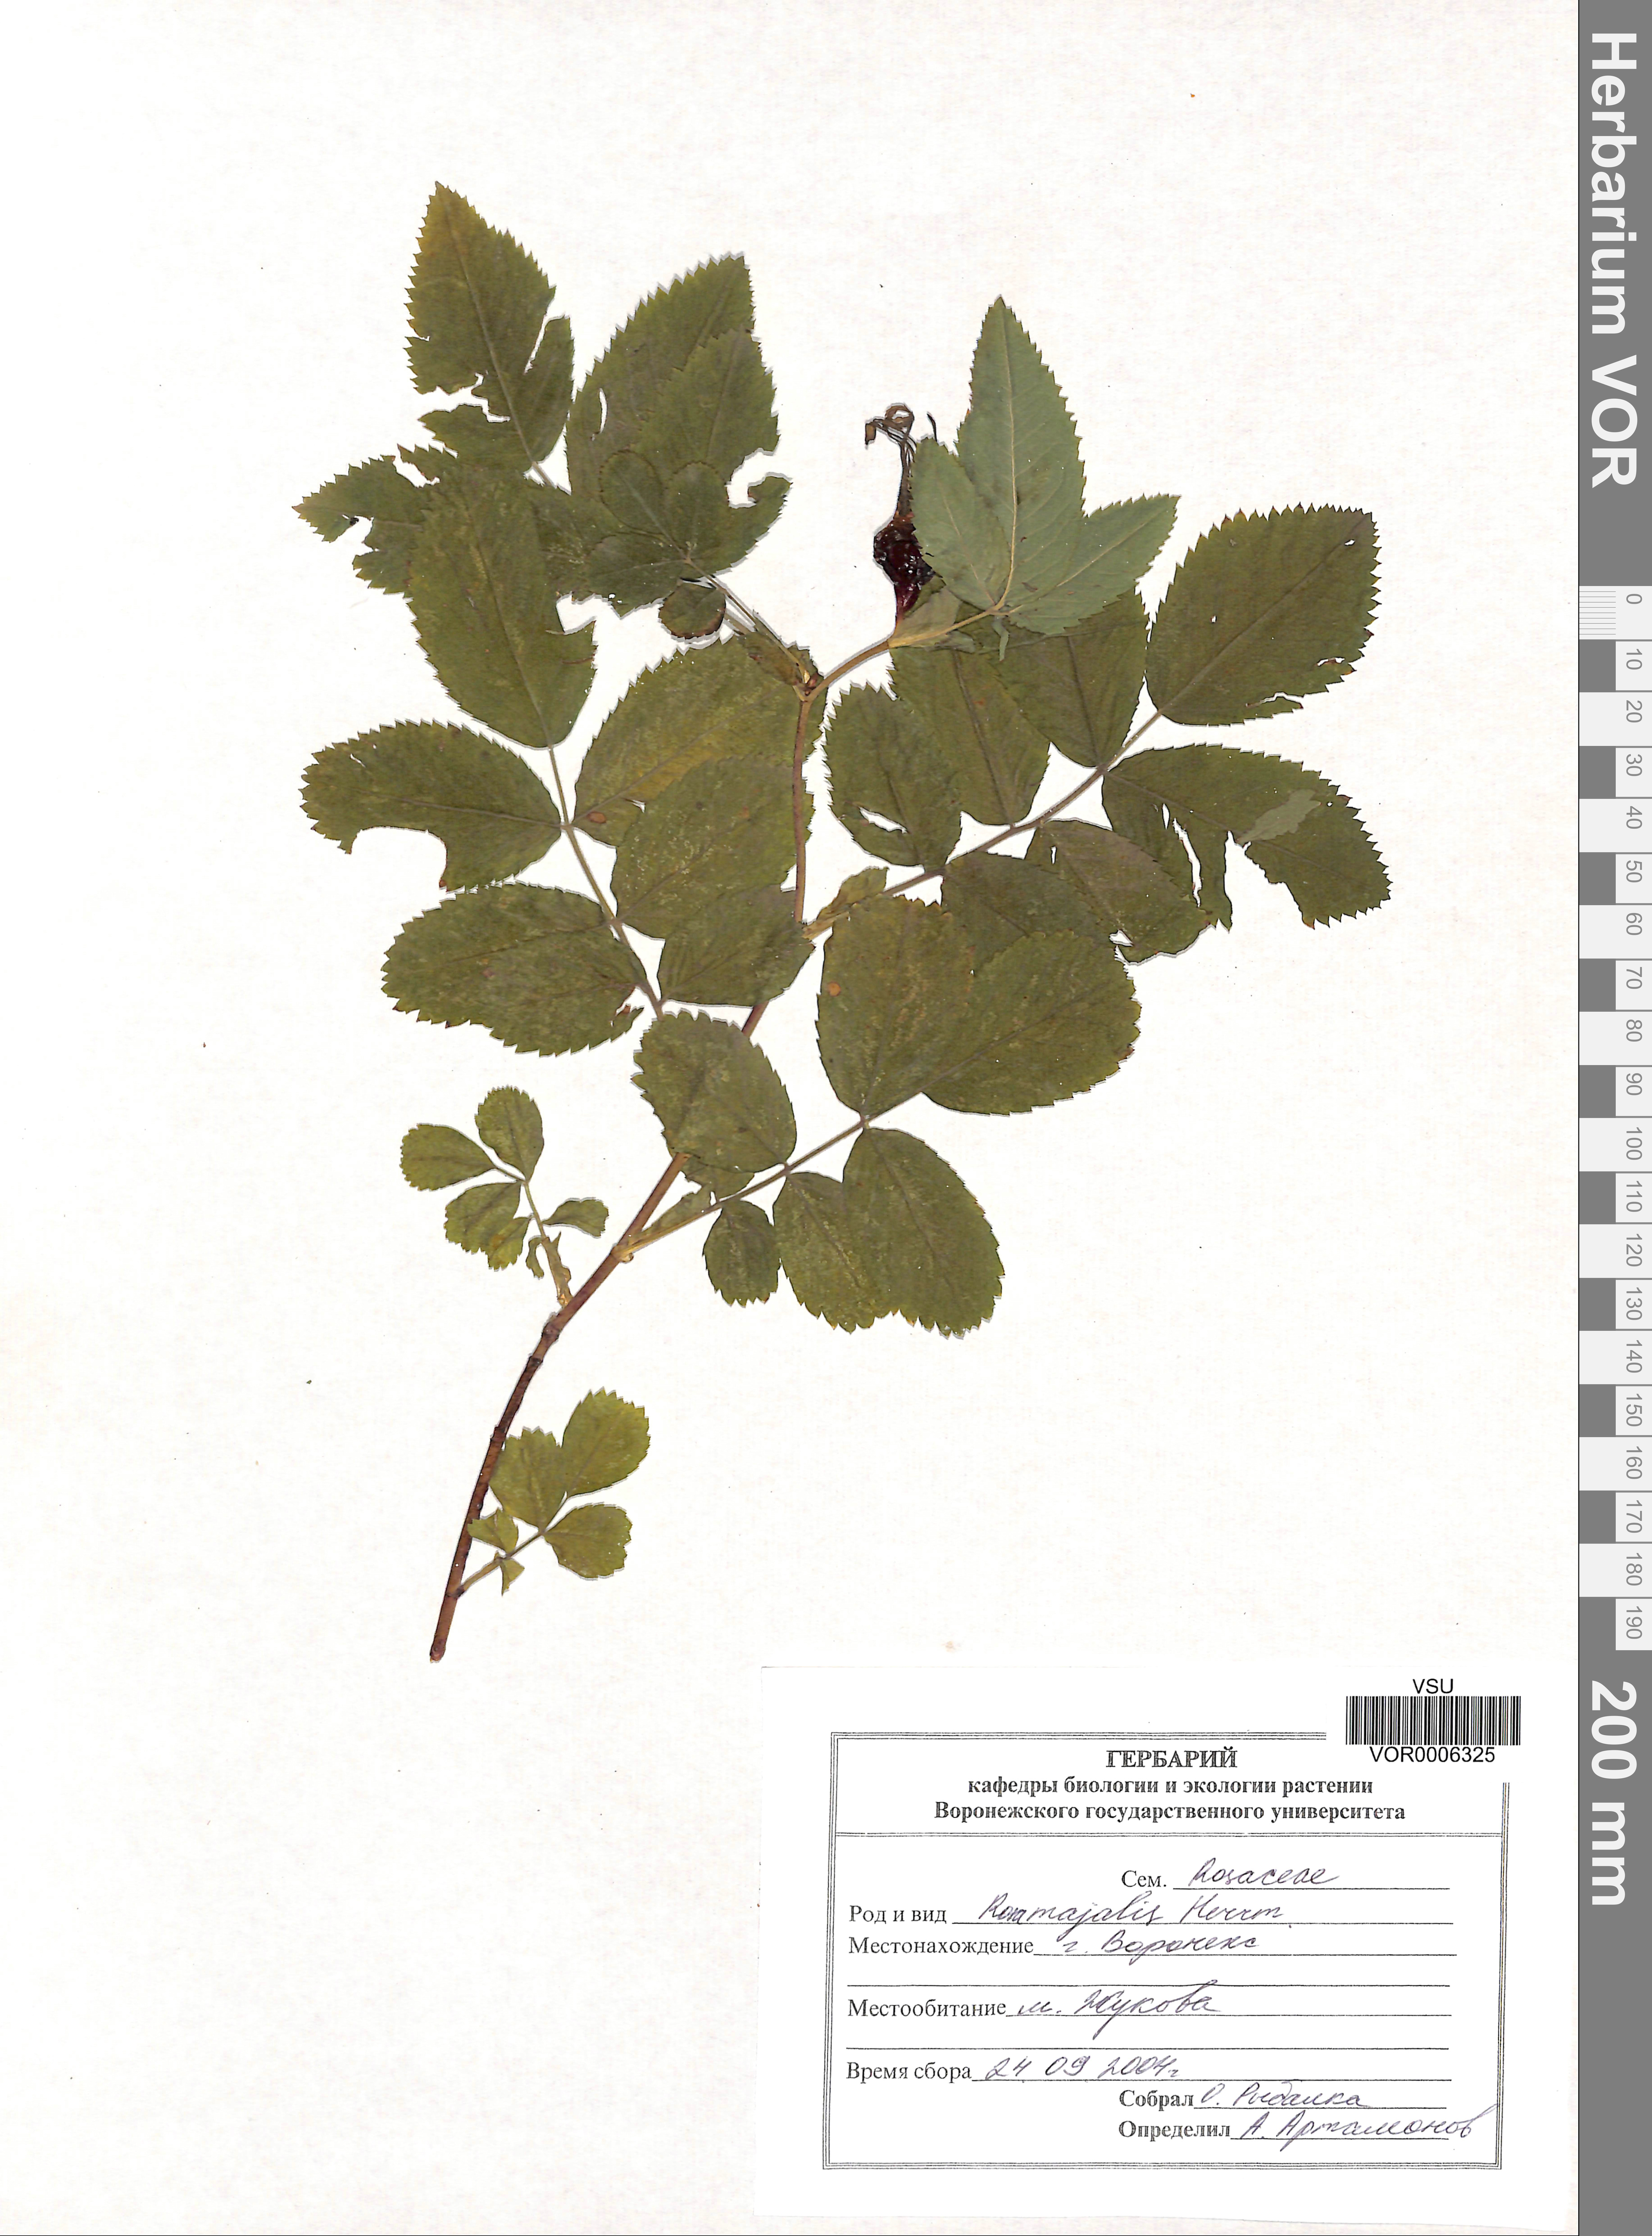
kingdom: Plantae
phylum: Tracheophyta
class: Magnoliopsida
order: Rosales
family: Rosaceae
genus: Rosa
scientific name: Rosa majalis
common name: Cinnamon rose
